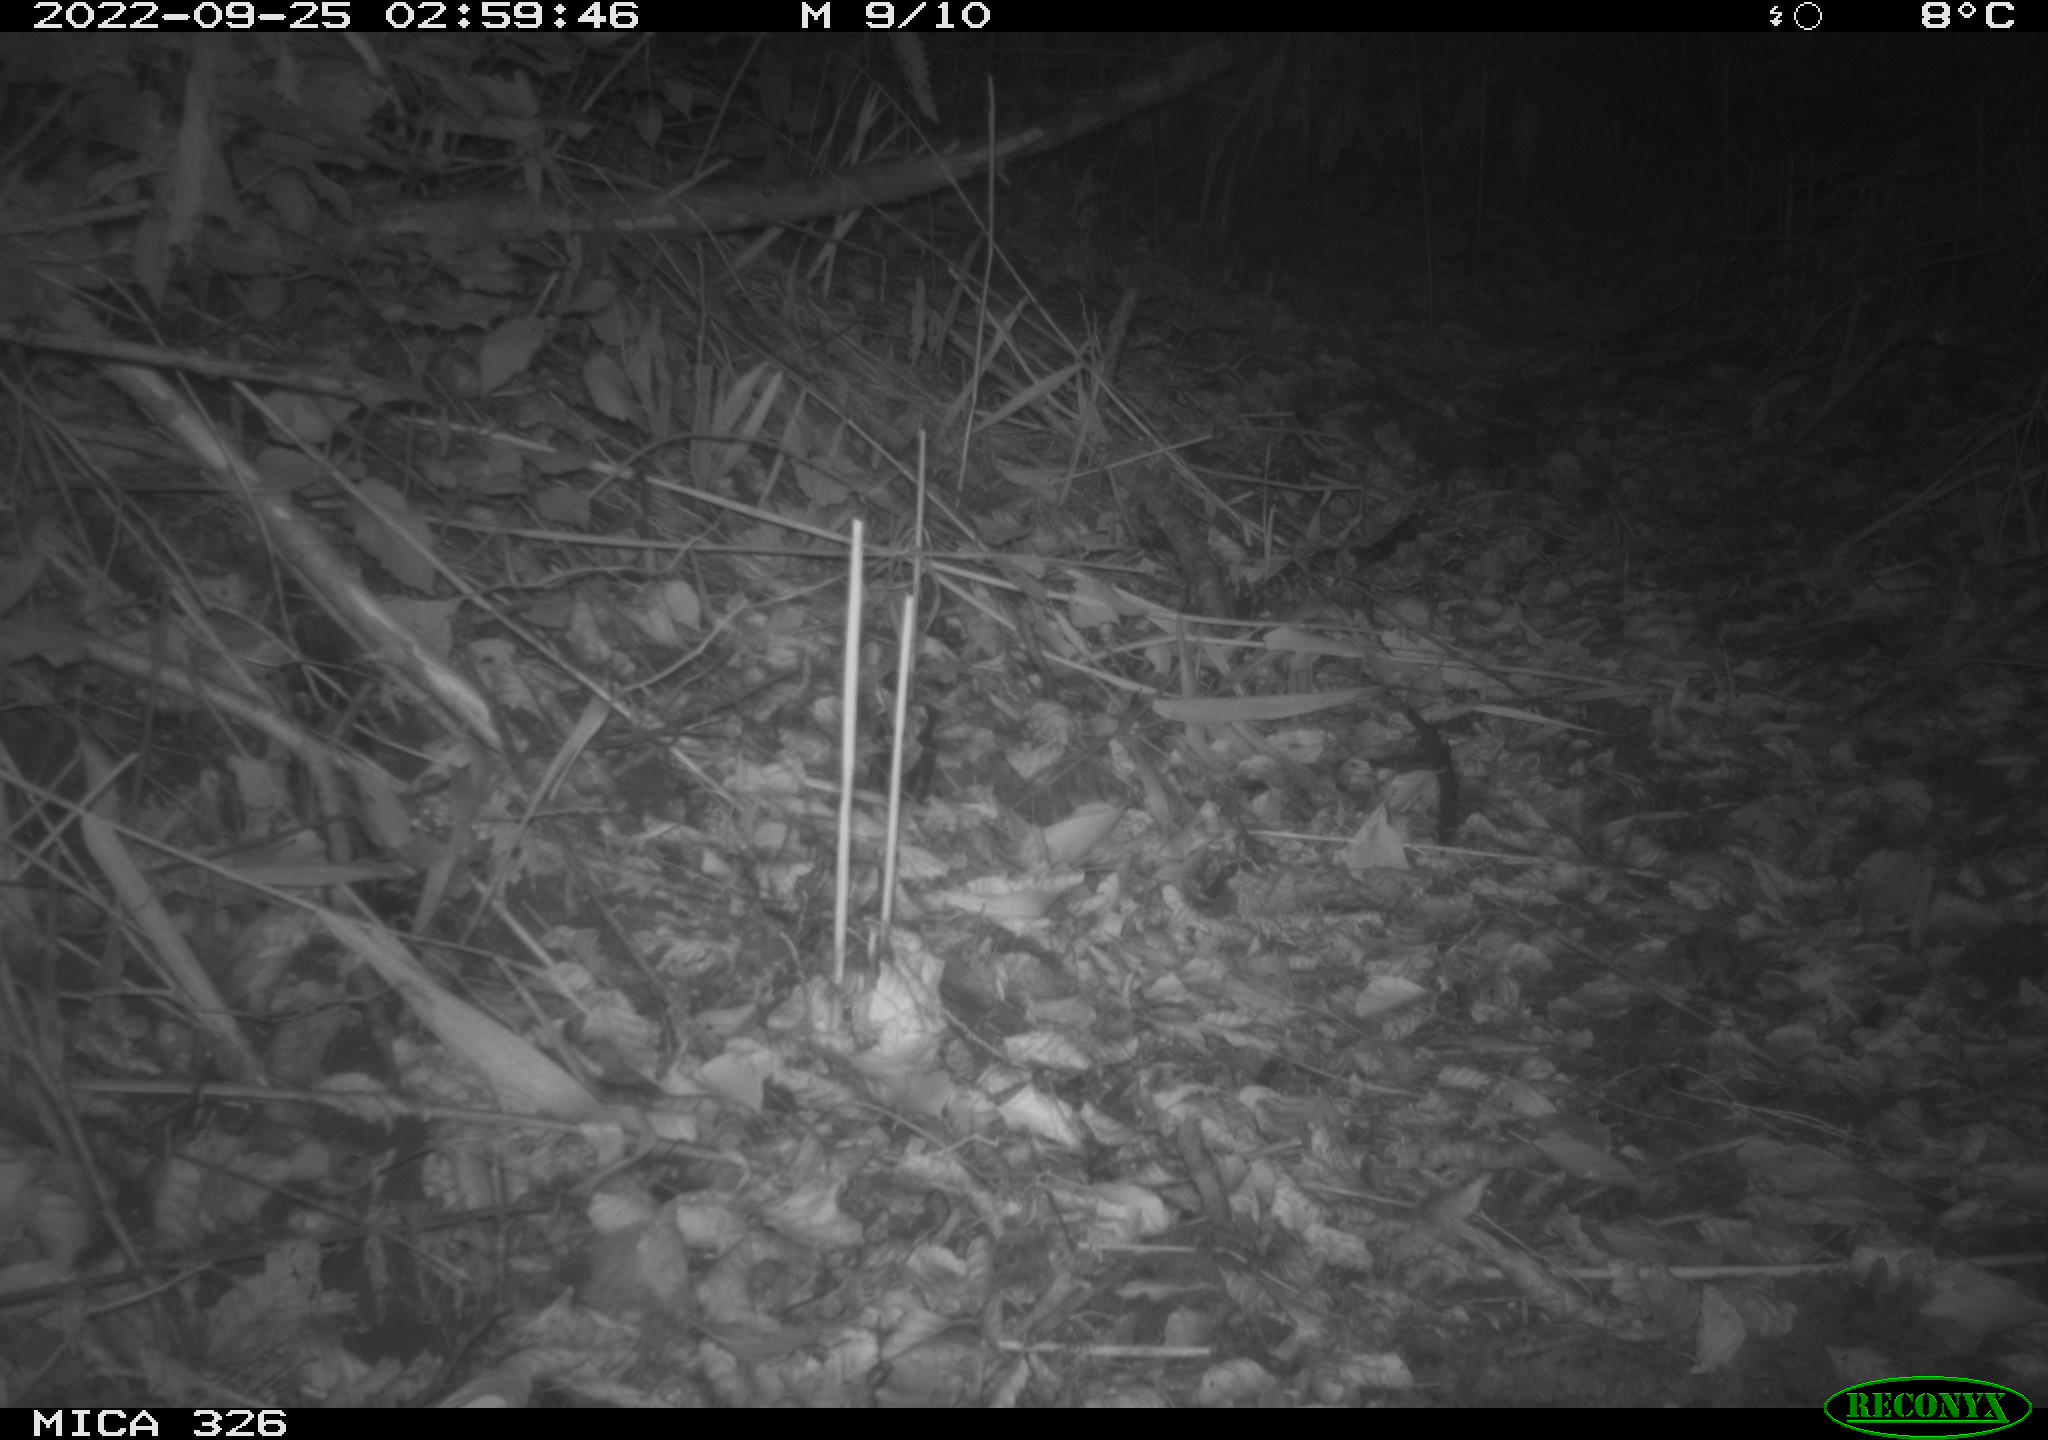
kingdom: Animalia
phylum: Chordata
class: Mammalia
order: Rodentia
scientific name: Rodentia
